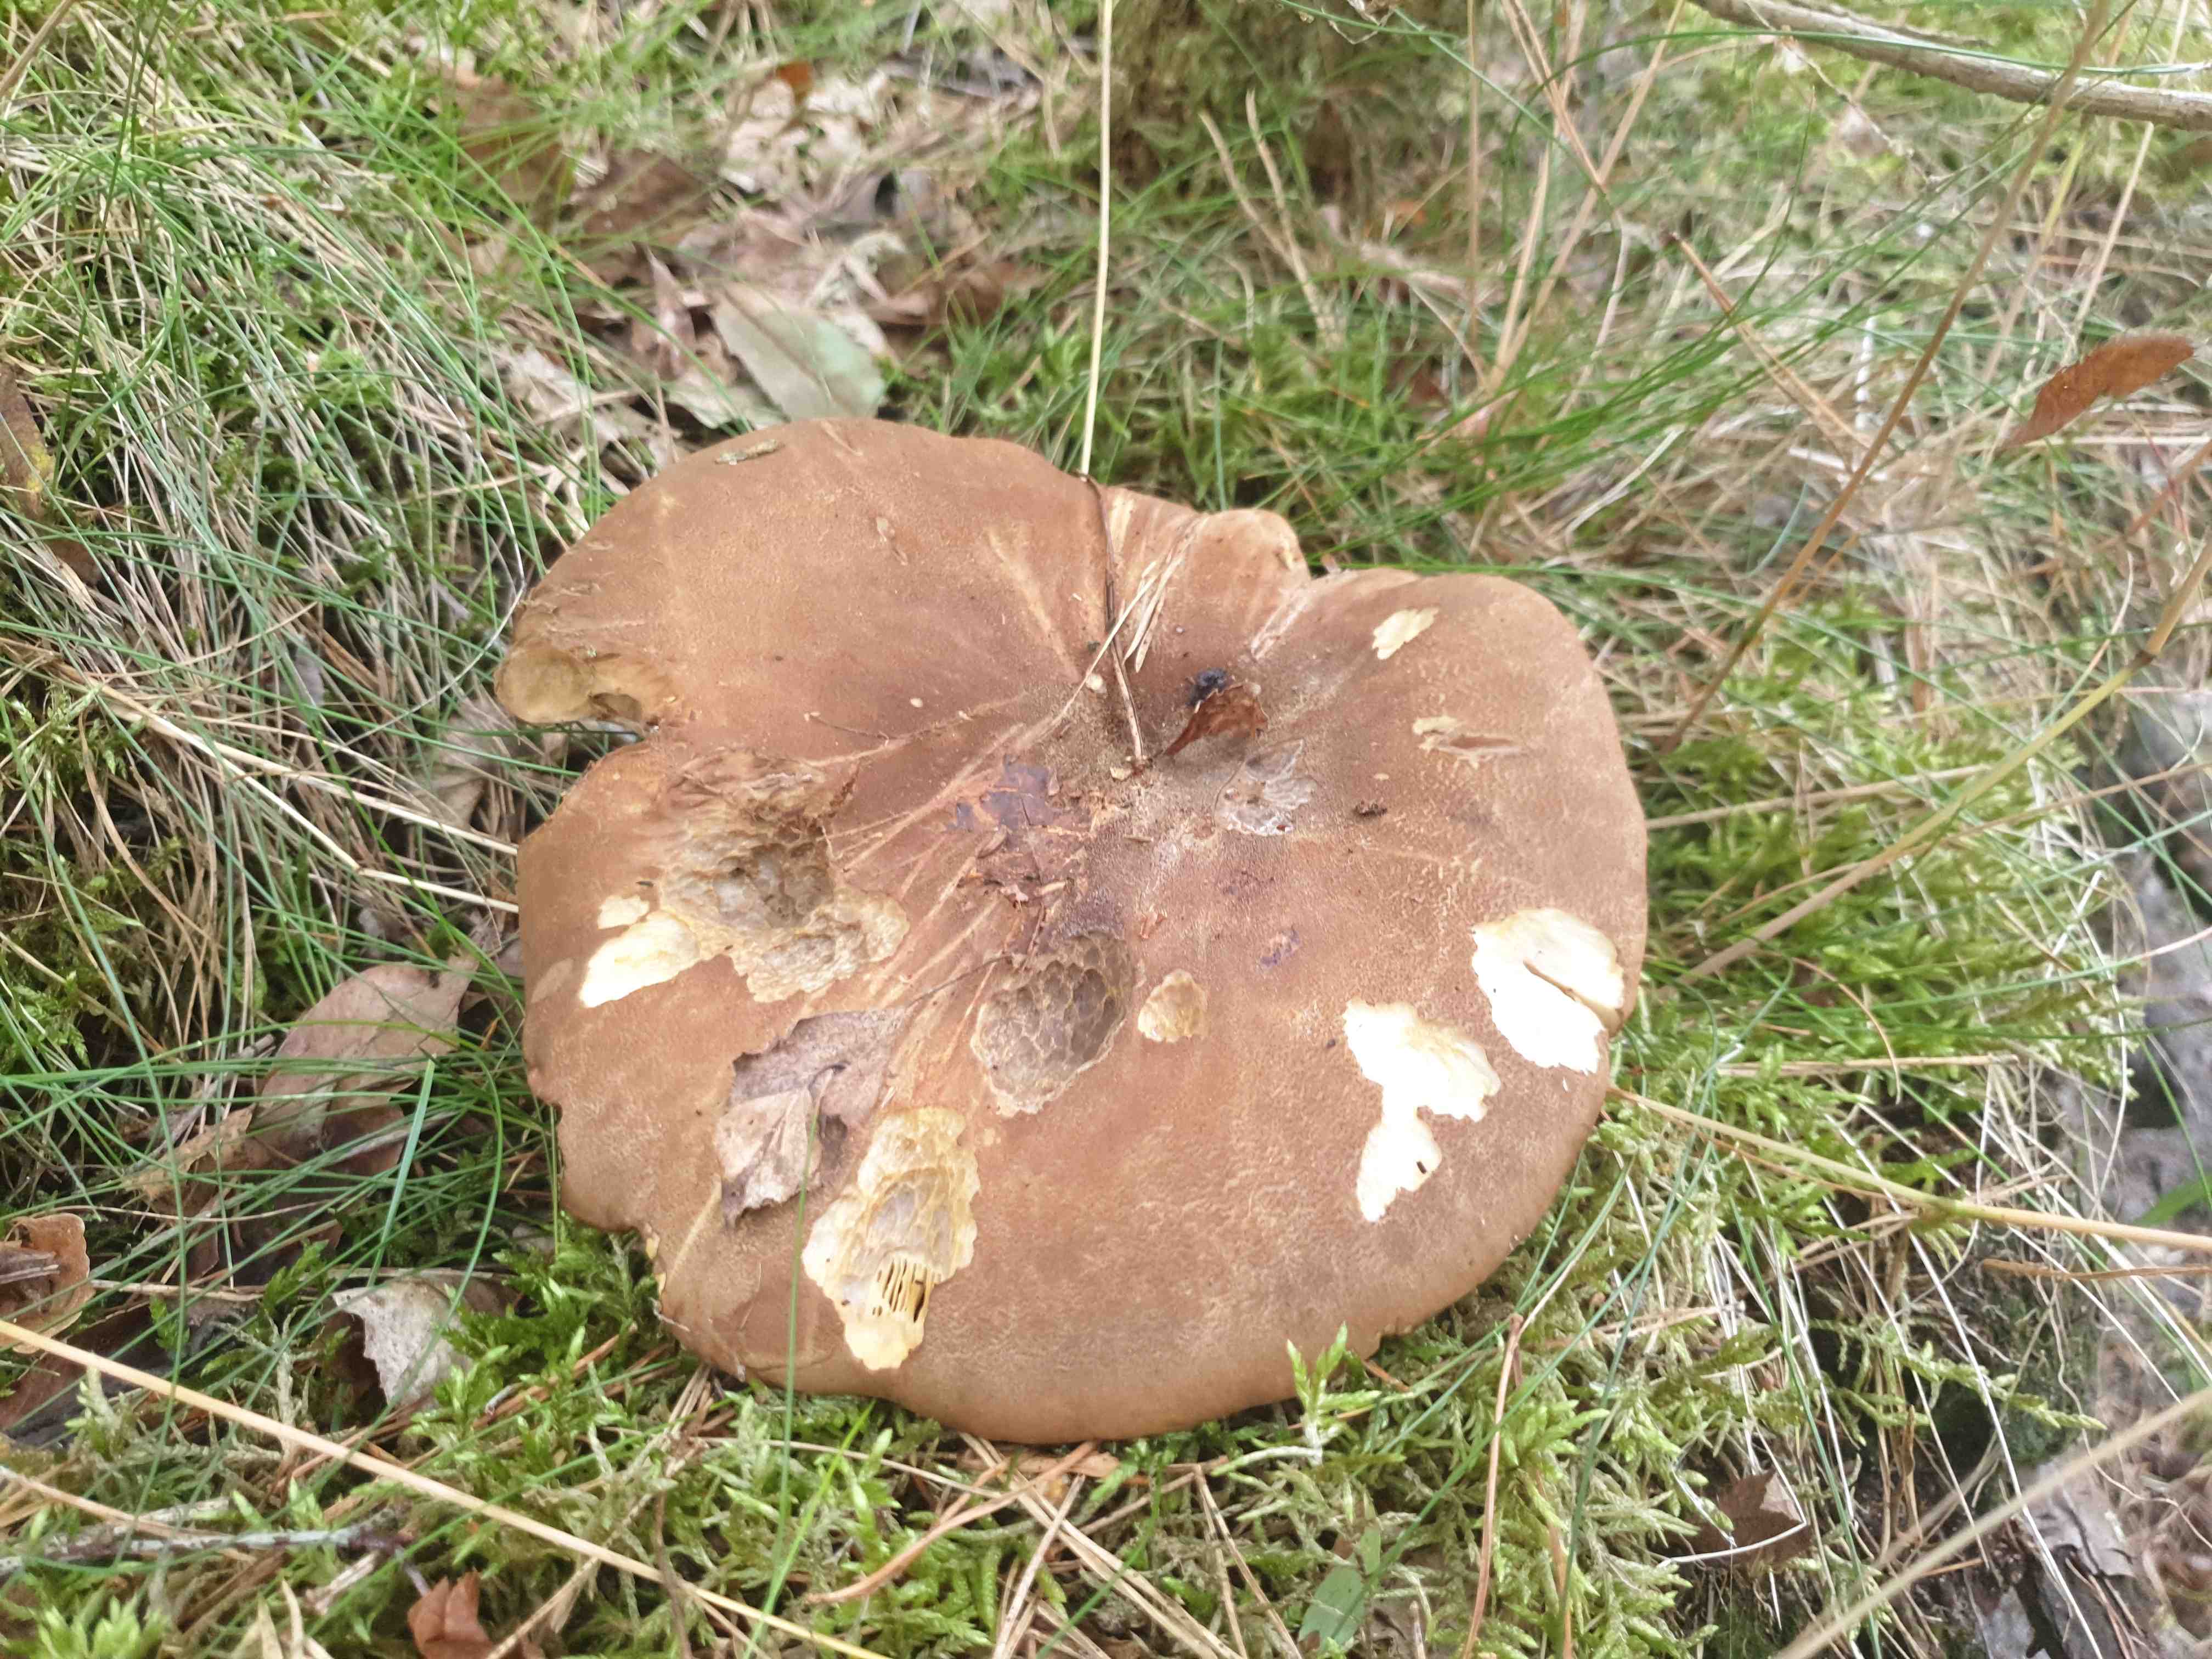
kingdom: Fungi
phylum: Basidiomycota
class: Agaricomycetes
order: Boletales
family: Tapinellaceae
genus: Tapinella
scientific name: Tapinella atrotomentosa
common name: sortfiltet viftesvamp
